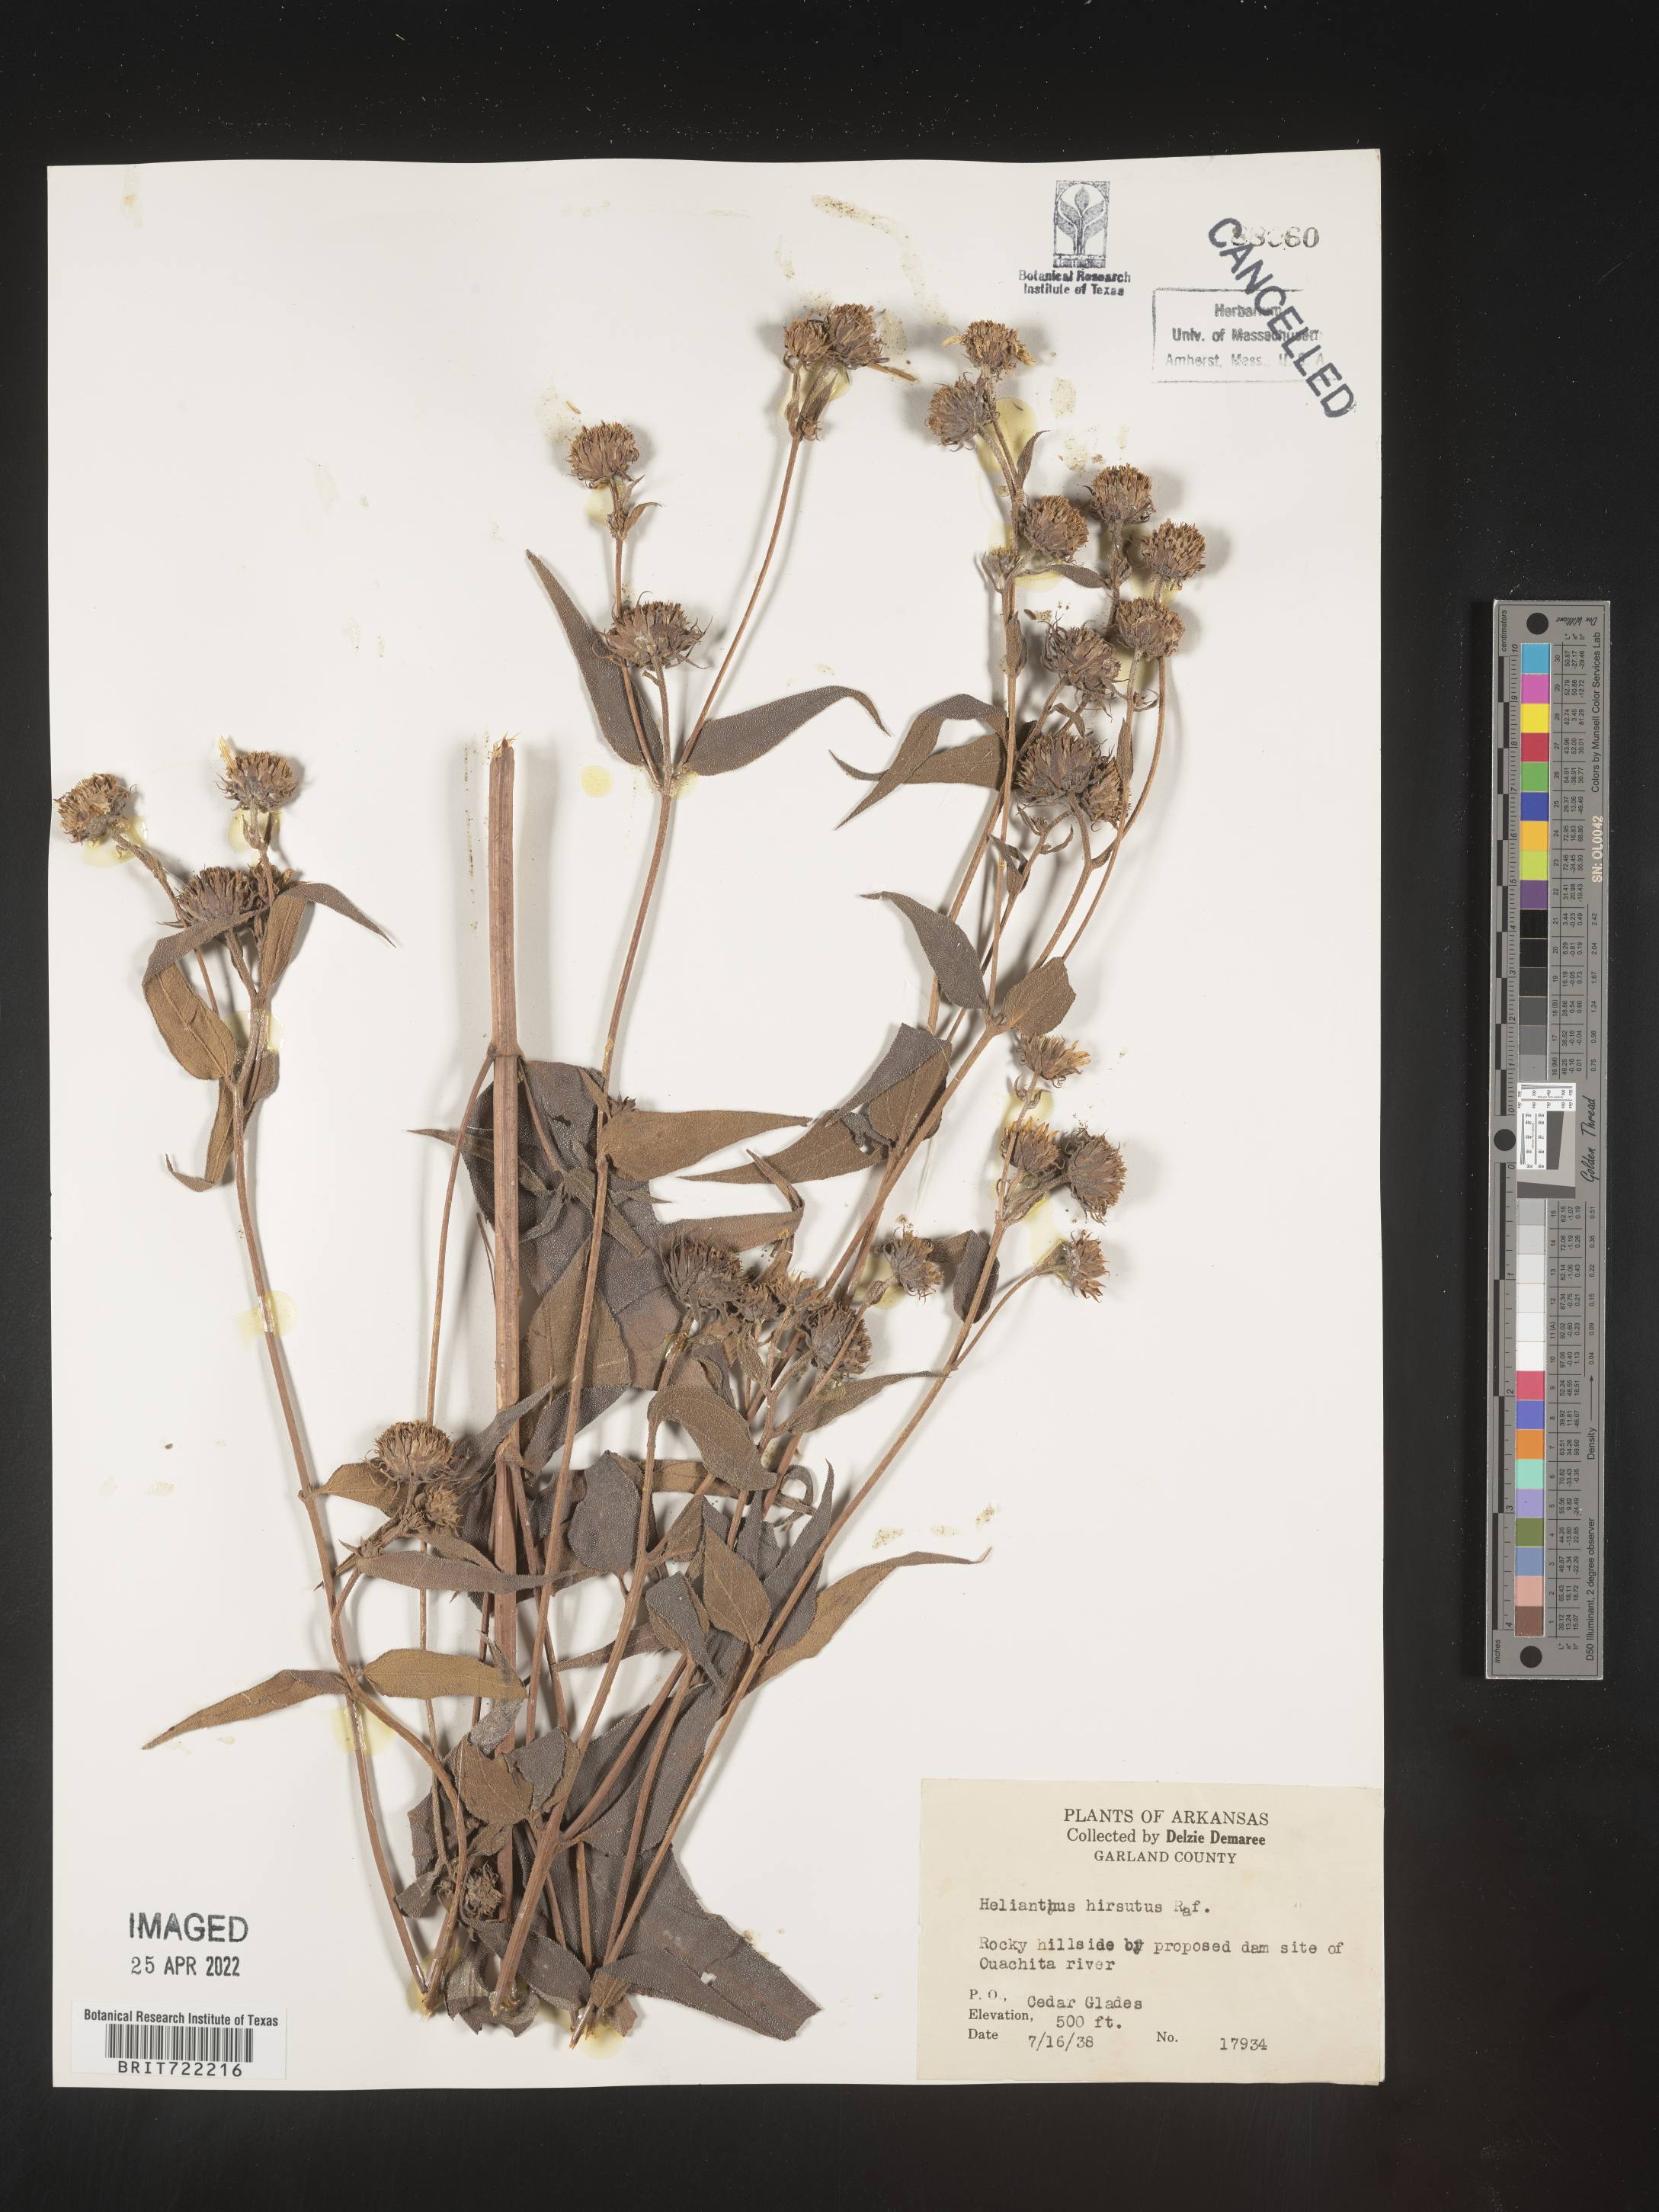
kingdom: Plantae
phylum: Tracheophyta
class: Magnoliopsida
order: Asterales
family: Asteraceae
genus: Helianthus
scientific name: Helianthus hirsutus
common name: Hairy sunflower
